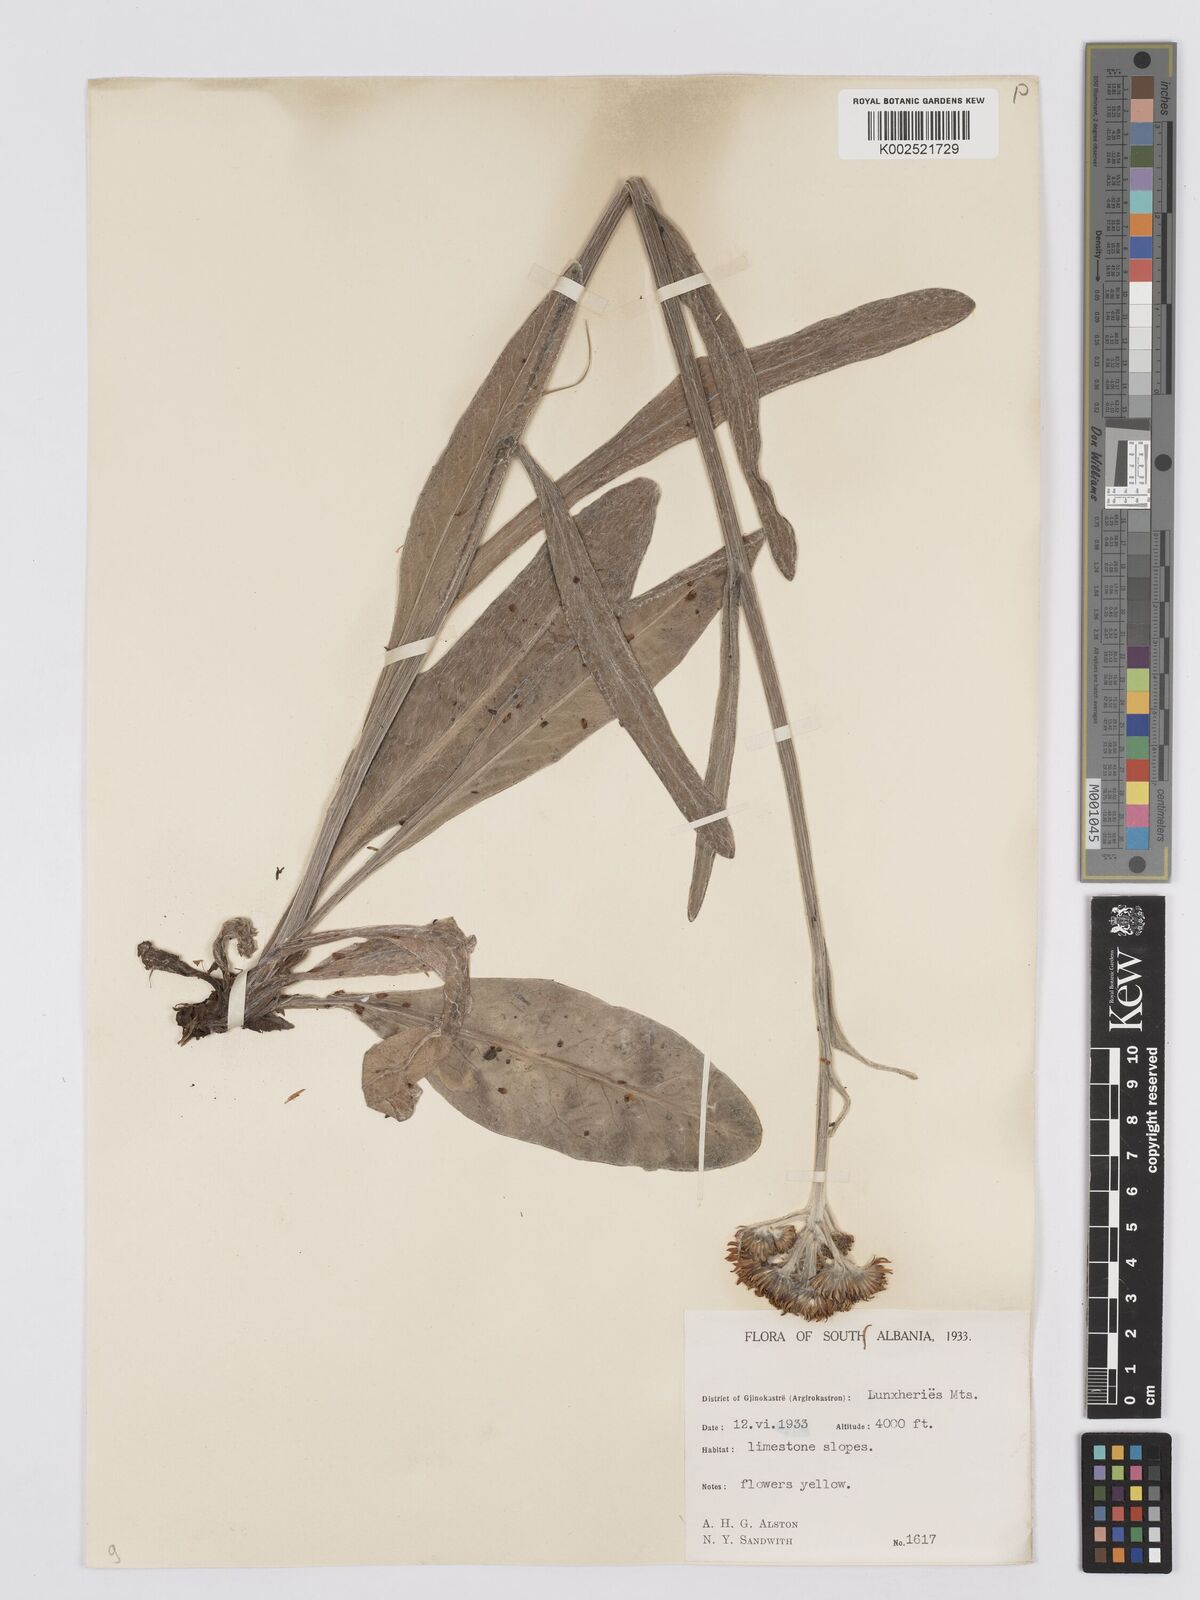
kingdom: Plantae
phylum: Tracheophyta
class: Magnoliopsida
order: Asterales
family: Asteraceae
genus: Tephroseris
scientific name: Tephroseris papposa
